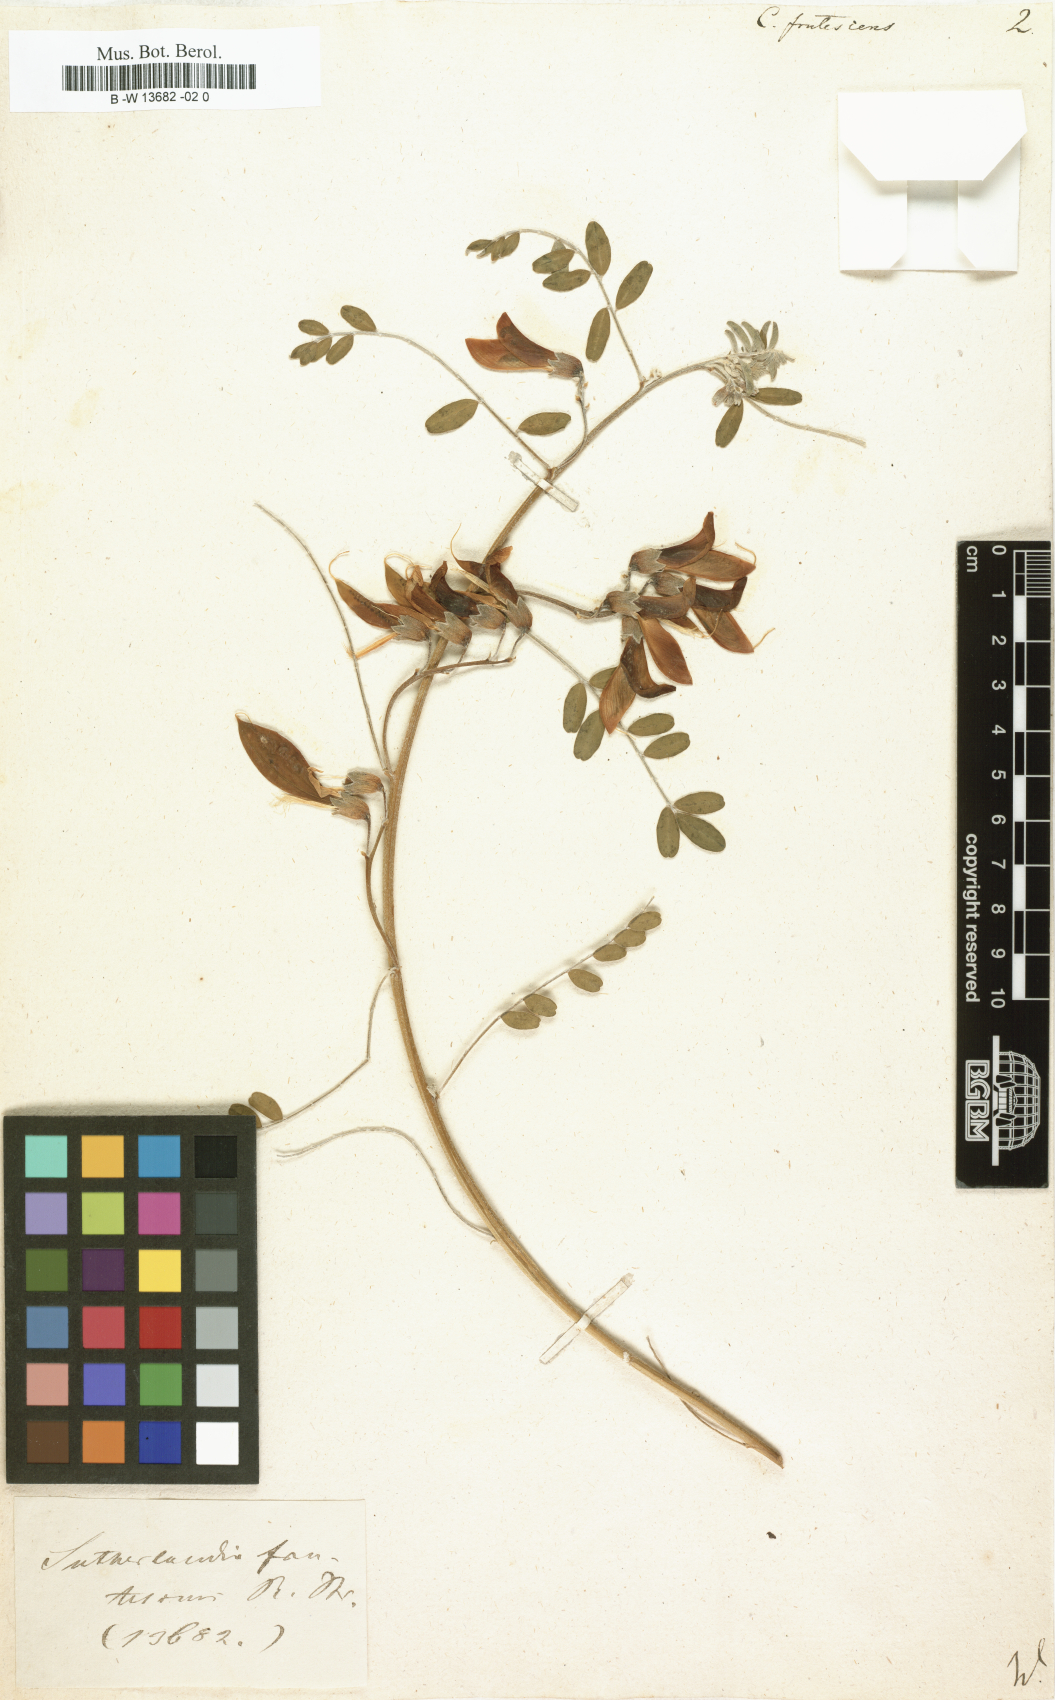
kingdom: Plantae
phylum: Tracheophyta
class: Magnoliopsida
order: Fabales
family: Fabaceae
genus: Lessertia
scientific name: Lessertia frutescens
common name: Balloon-pea
